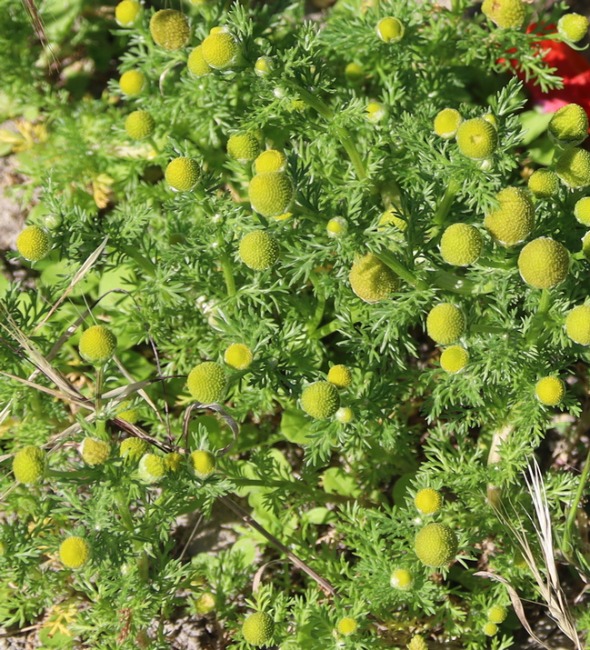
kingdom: Plantae
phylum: Tracheophyta
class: Magnoliopsida
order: Asterales
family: Asteraceae
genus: Matricaria
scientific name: Matricaria discoidea
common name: Skive-kamille
